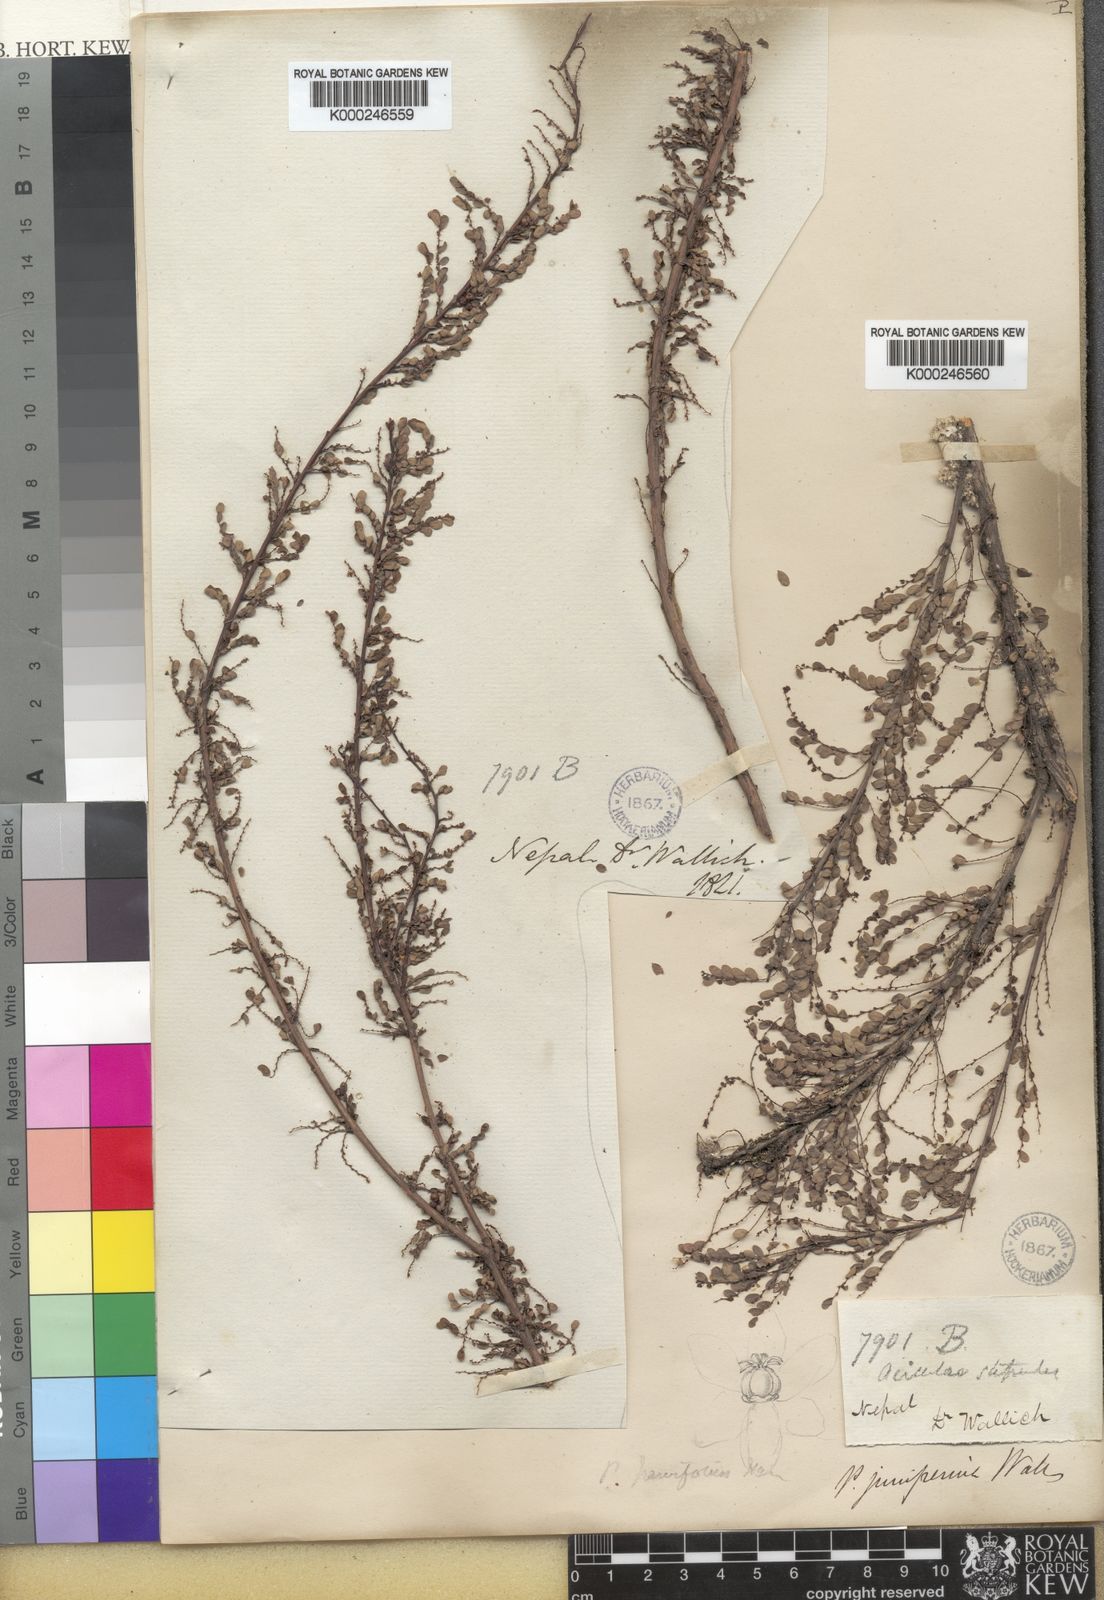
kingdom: Plantae
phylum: Tracheophyta
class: Magnoliopsida
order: Malpighiales
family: Phyllanthaceae
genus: Phyllanthus
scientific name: Phyllanthus parvifolius
